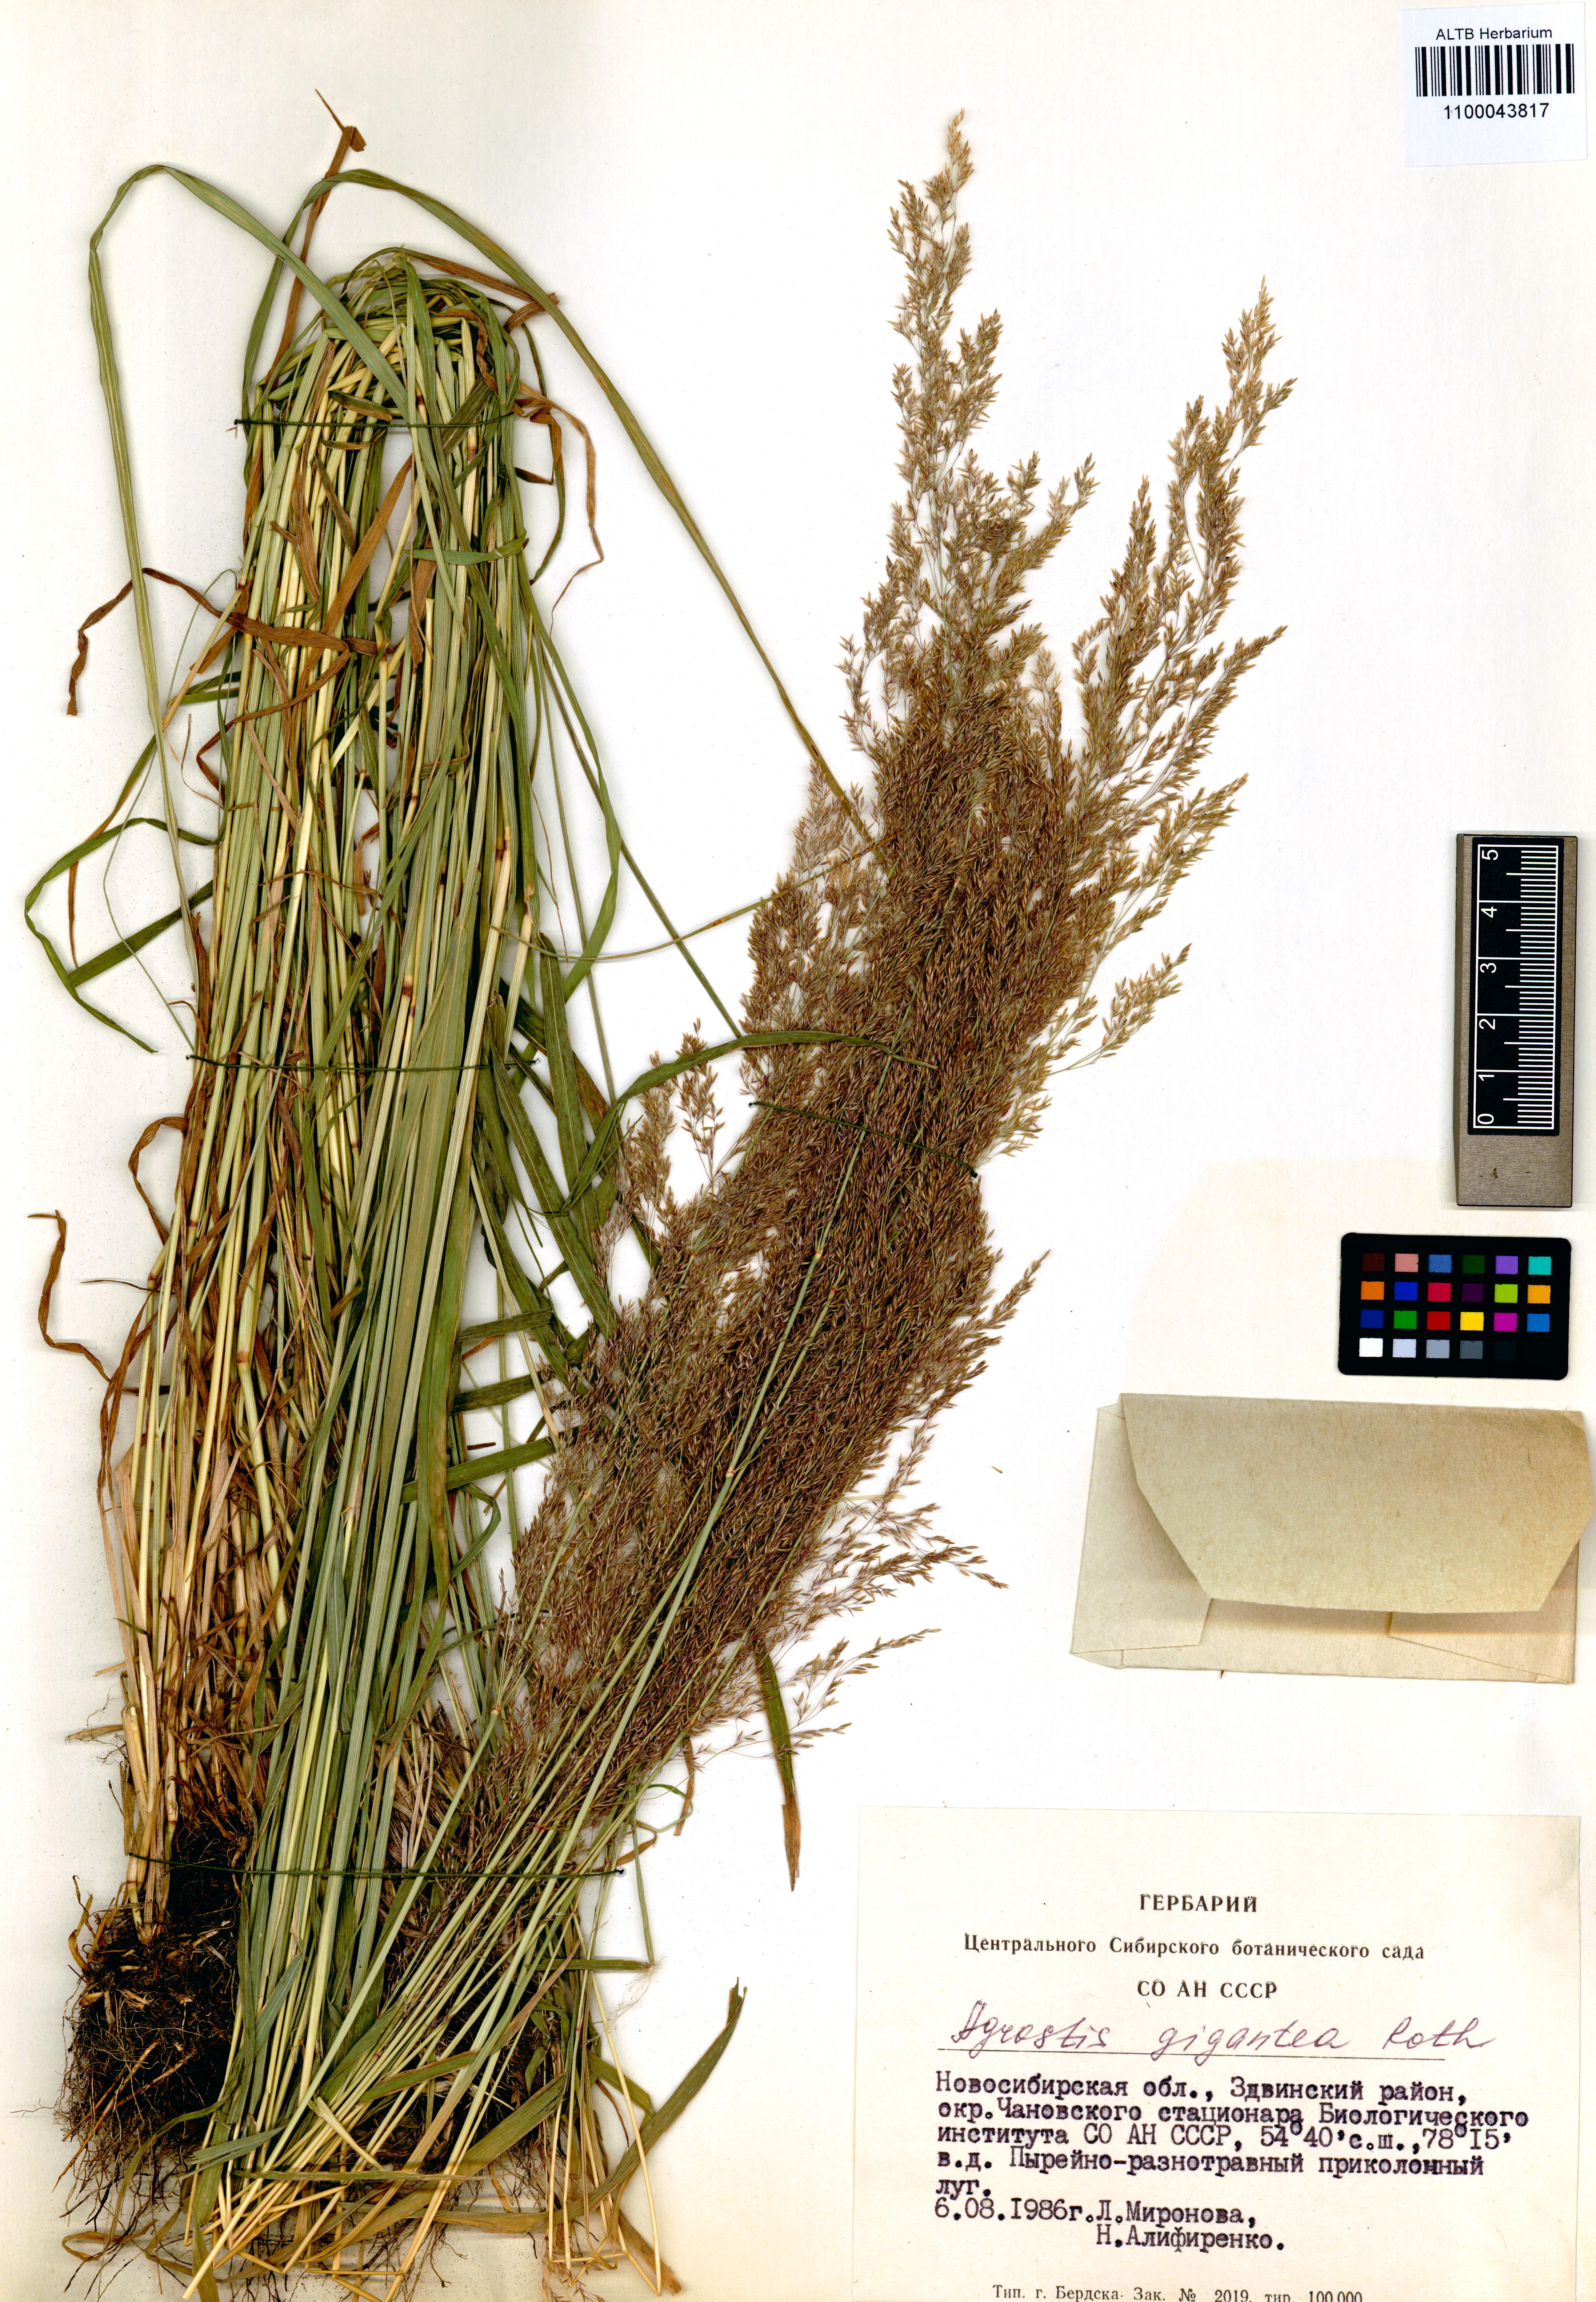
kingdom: Plantae
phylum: Tracheophyta
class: Liliopsida
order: Poales
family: Poaceae
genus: Agrostis
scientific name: Agrostis gigantea
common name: Black bent
